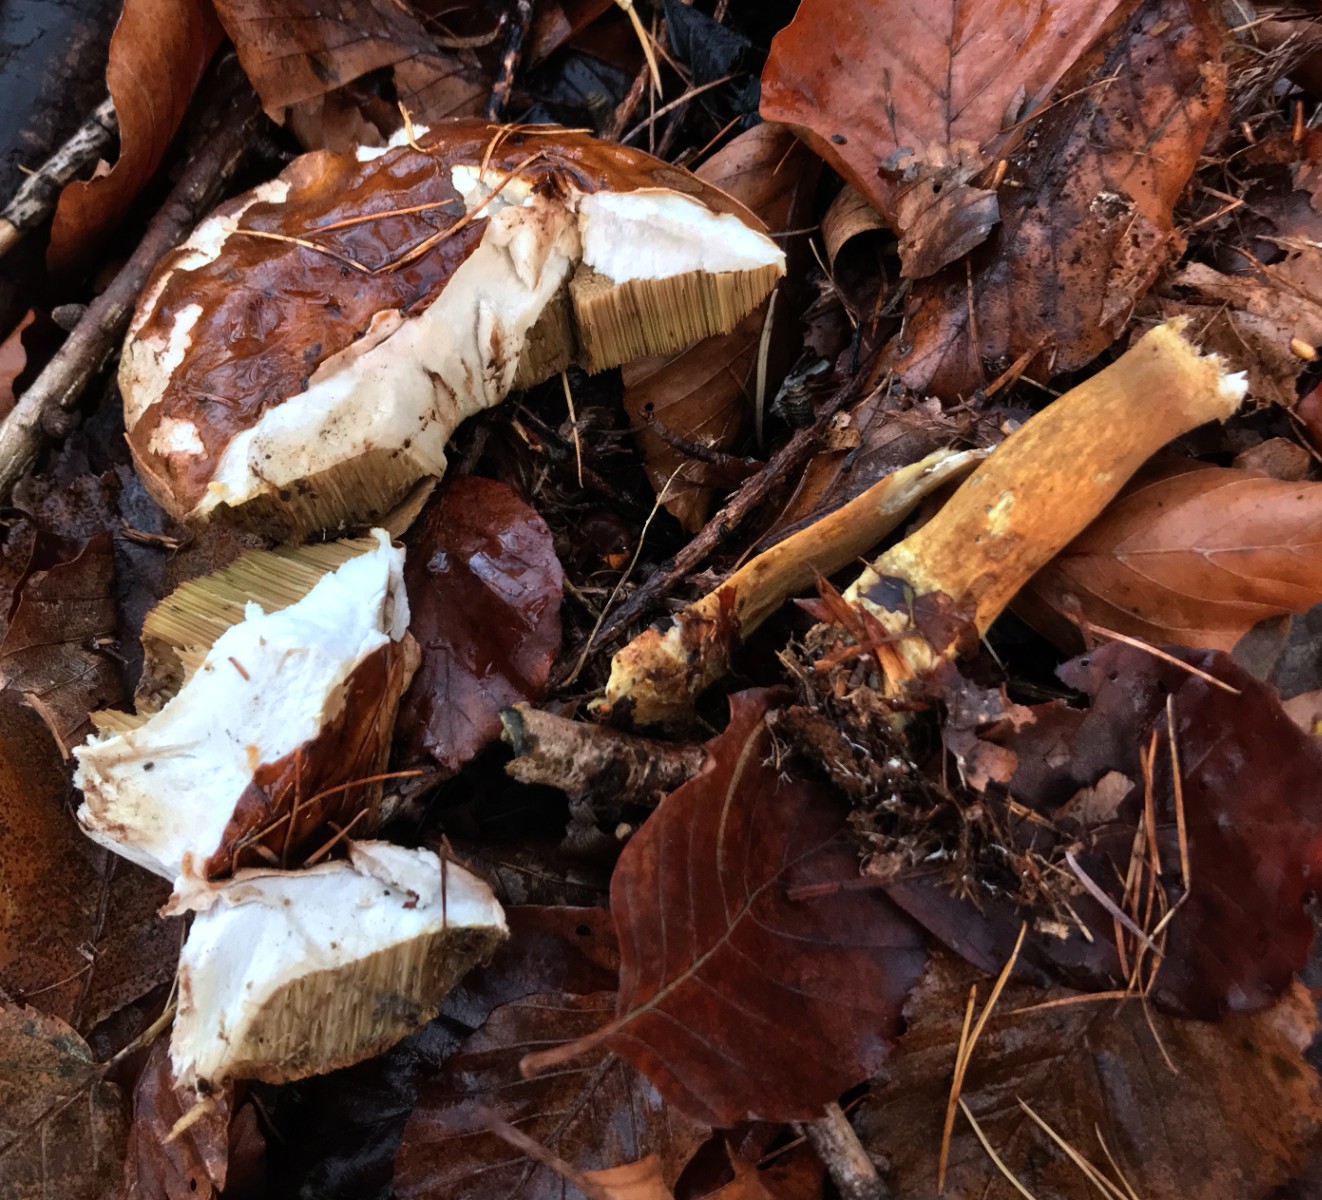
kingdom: Fungi
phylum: Basidiomycota
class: Agaricomycetes
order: Boletales
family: Boletaceae
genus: Imleria
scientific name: Imleria badia
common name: brunstokket rørhat
